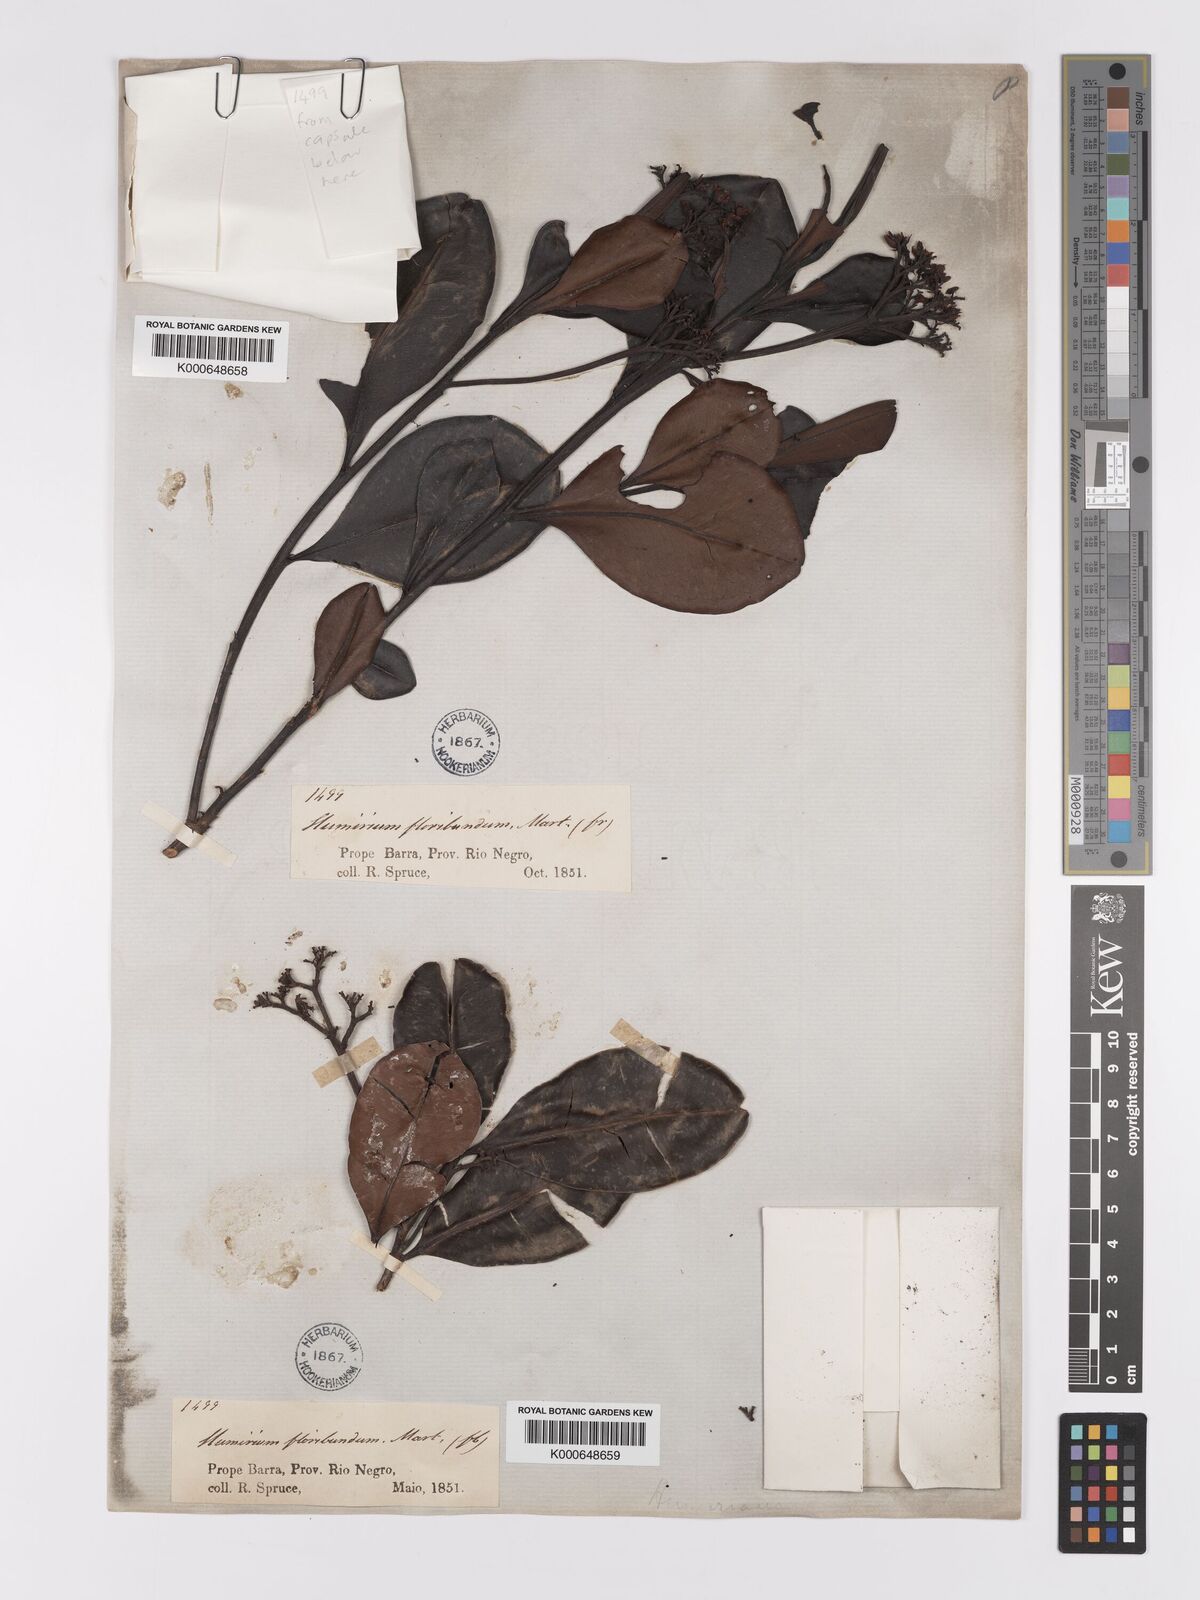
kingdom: Plantae
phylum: Tracheophyta
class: Magnoliopsida
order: Malpighiales
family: Humiriaceae
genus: Humiria
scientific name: Humiria balsamifera
